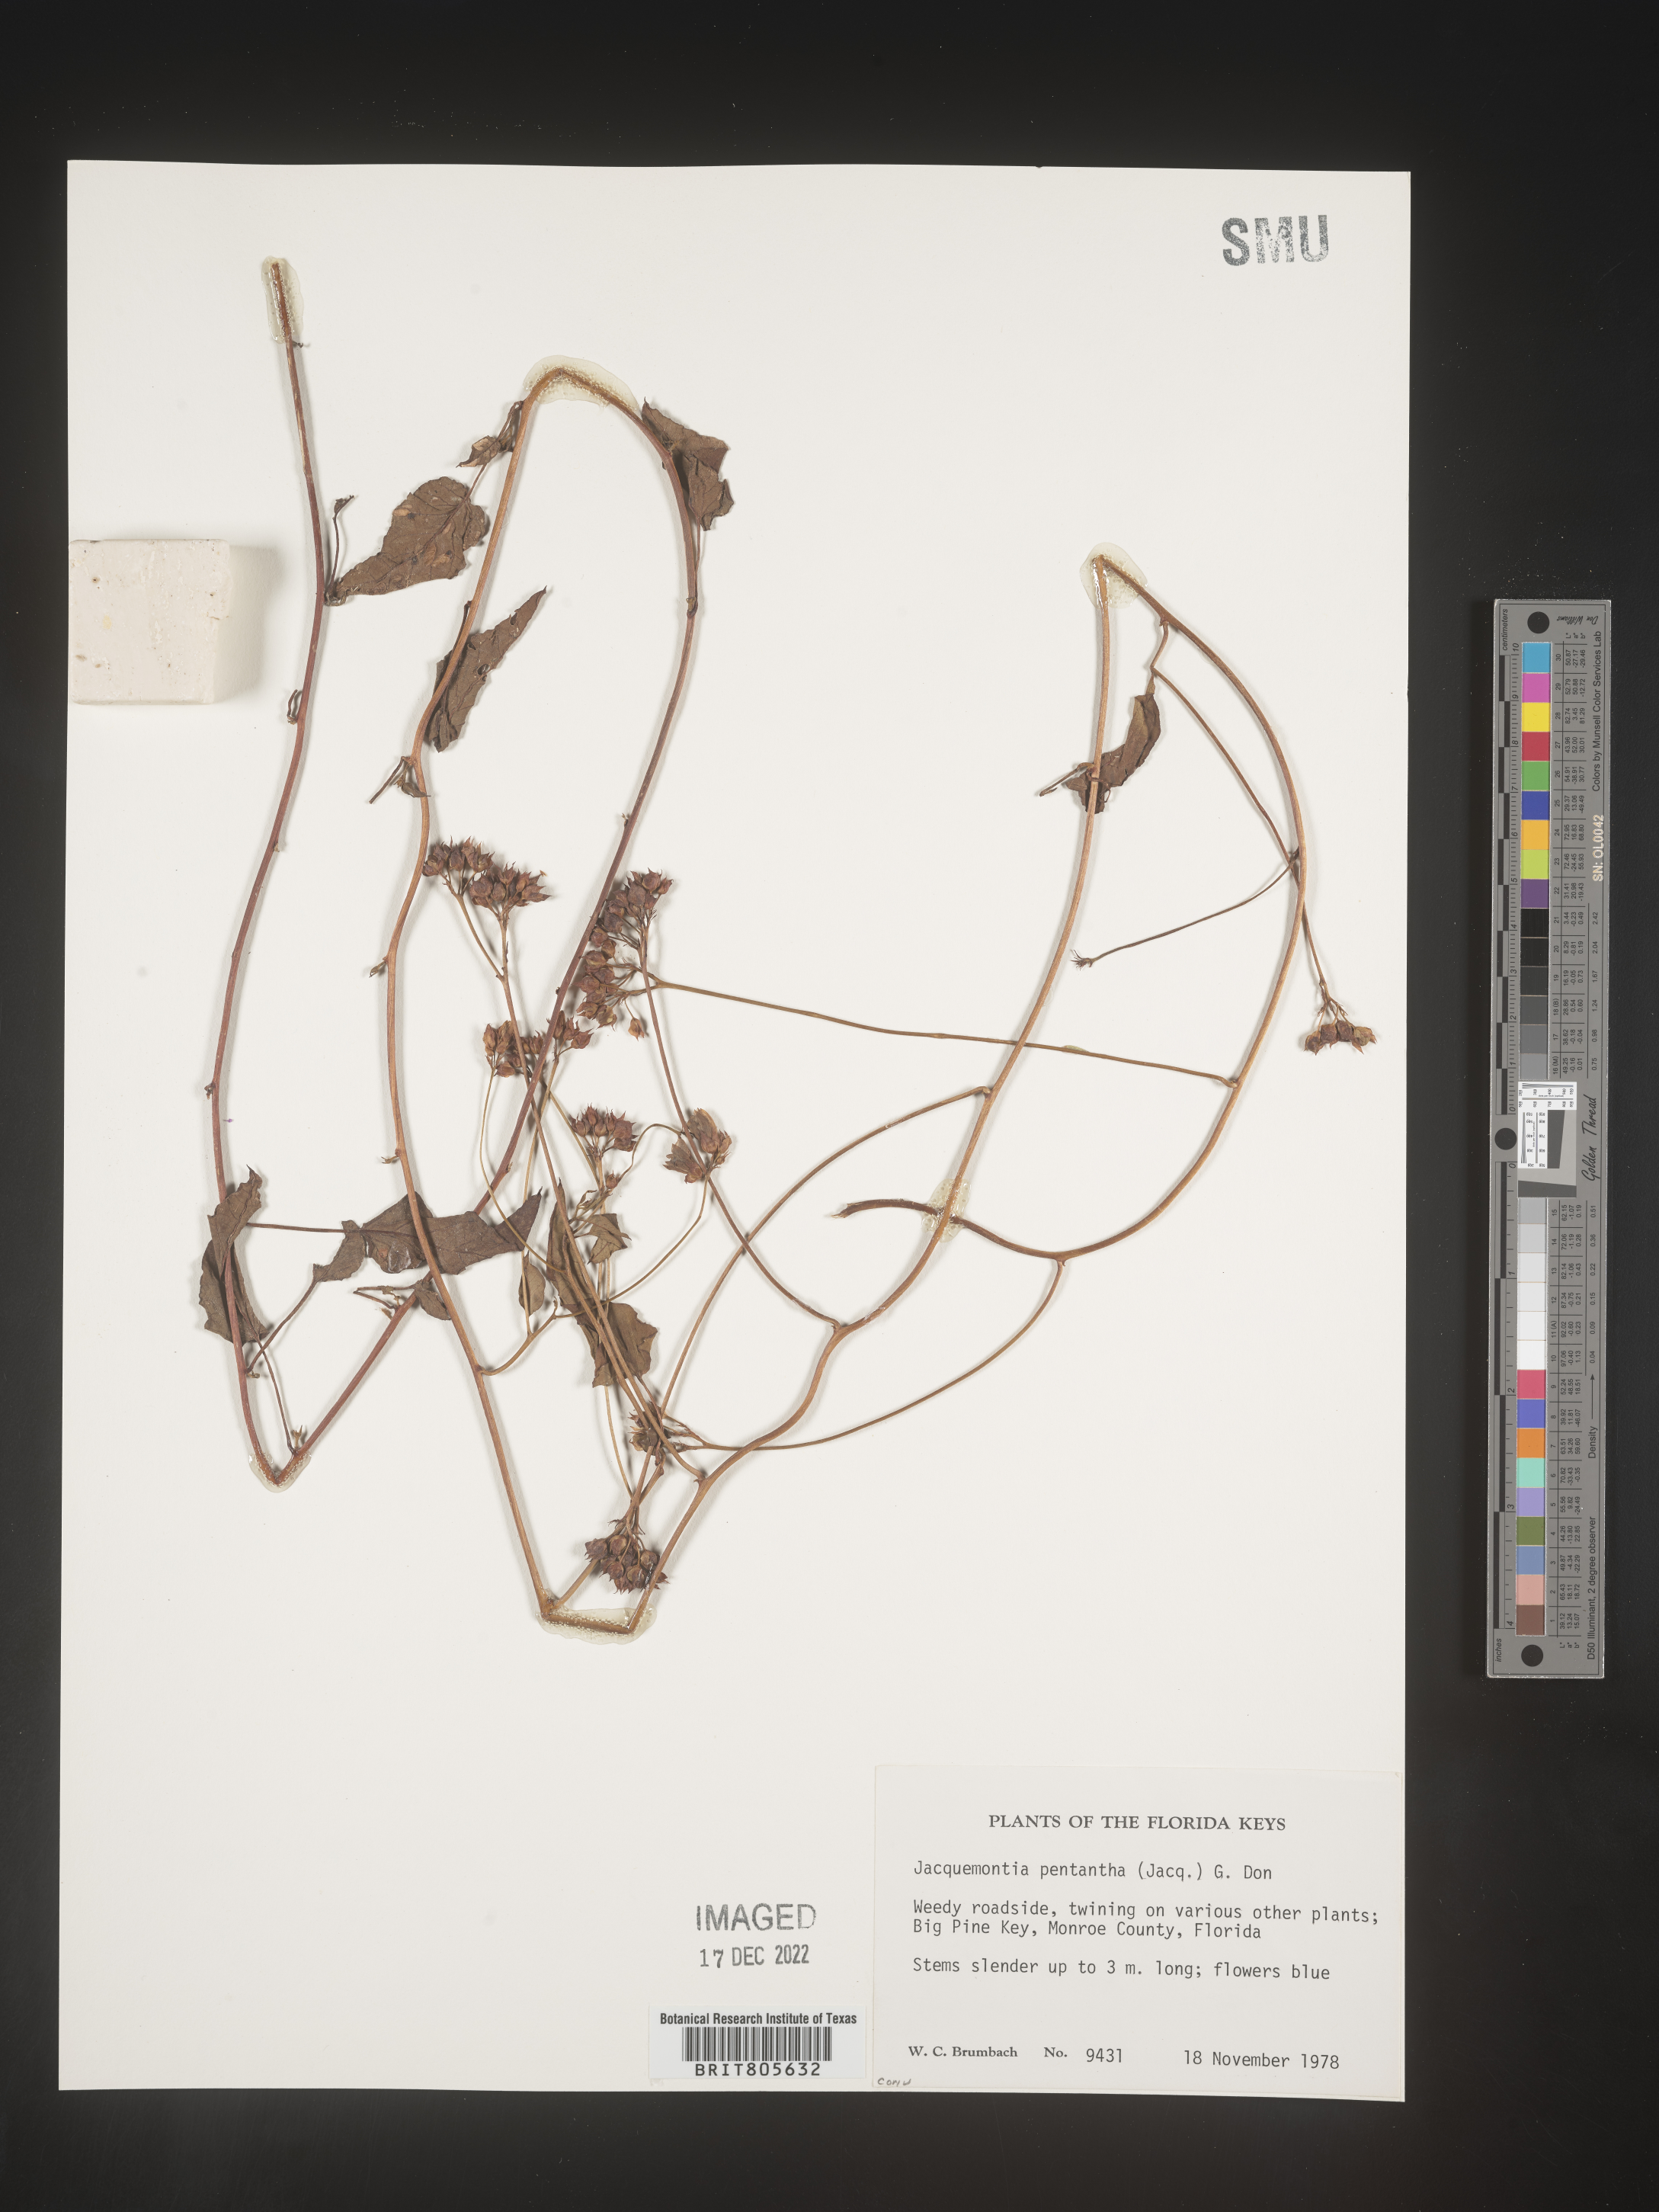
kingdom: Plantae
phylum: Tracheophyta
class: Magnoliopsida
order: Solanales
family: Convolvulaceae
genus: Jacquemontia
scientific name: Jacquemontia
